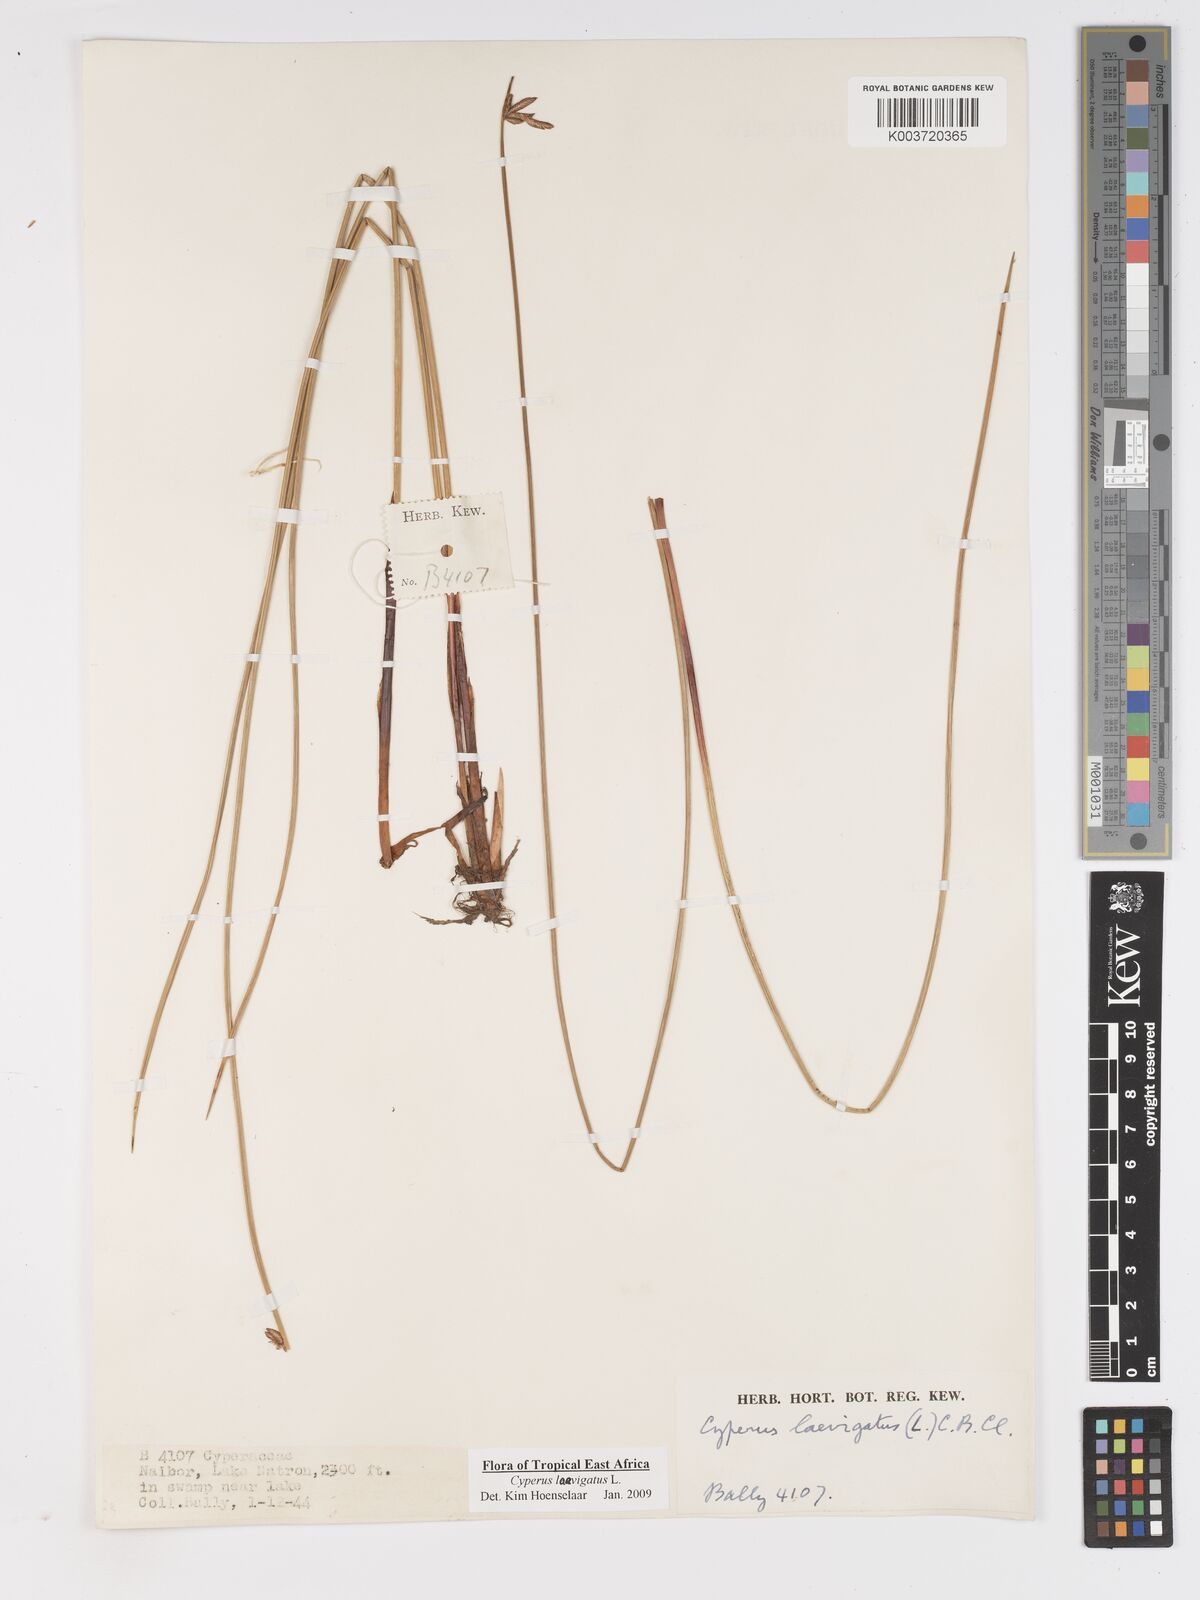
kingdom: Plantae
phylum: Tracheophyta
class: Liliopsida
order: Poales
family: Cyperaceae
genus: Cyperus
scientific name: Cyperus laevigatus
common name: Smooth flat sedge
